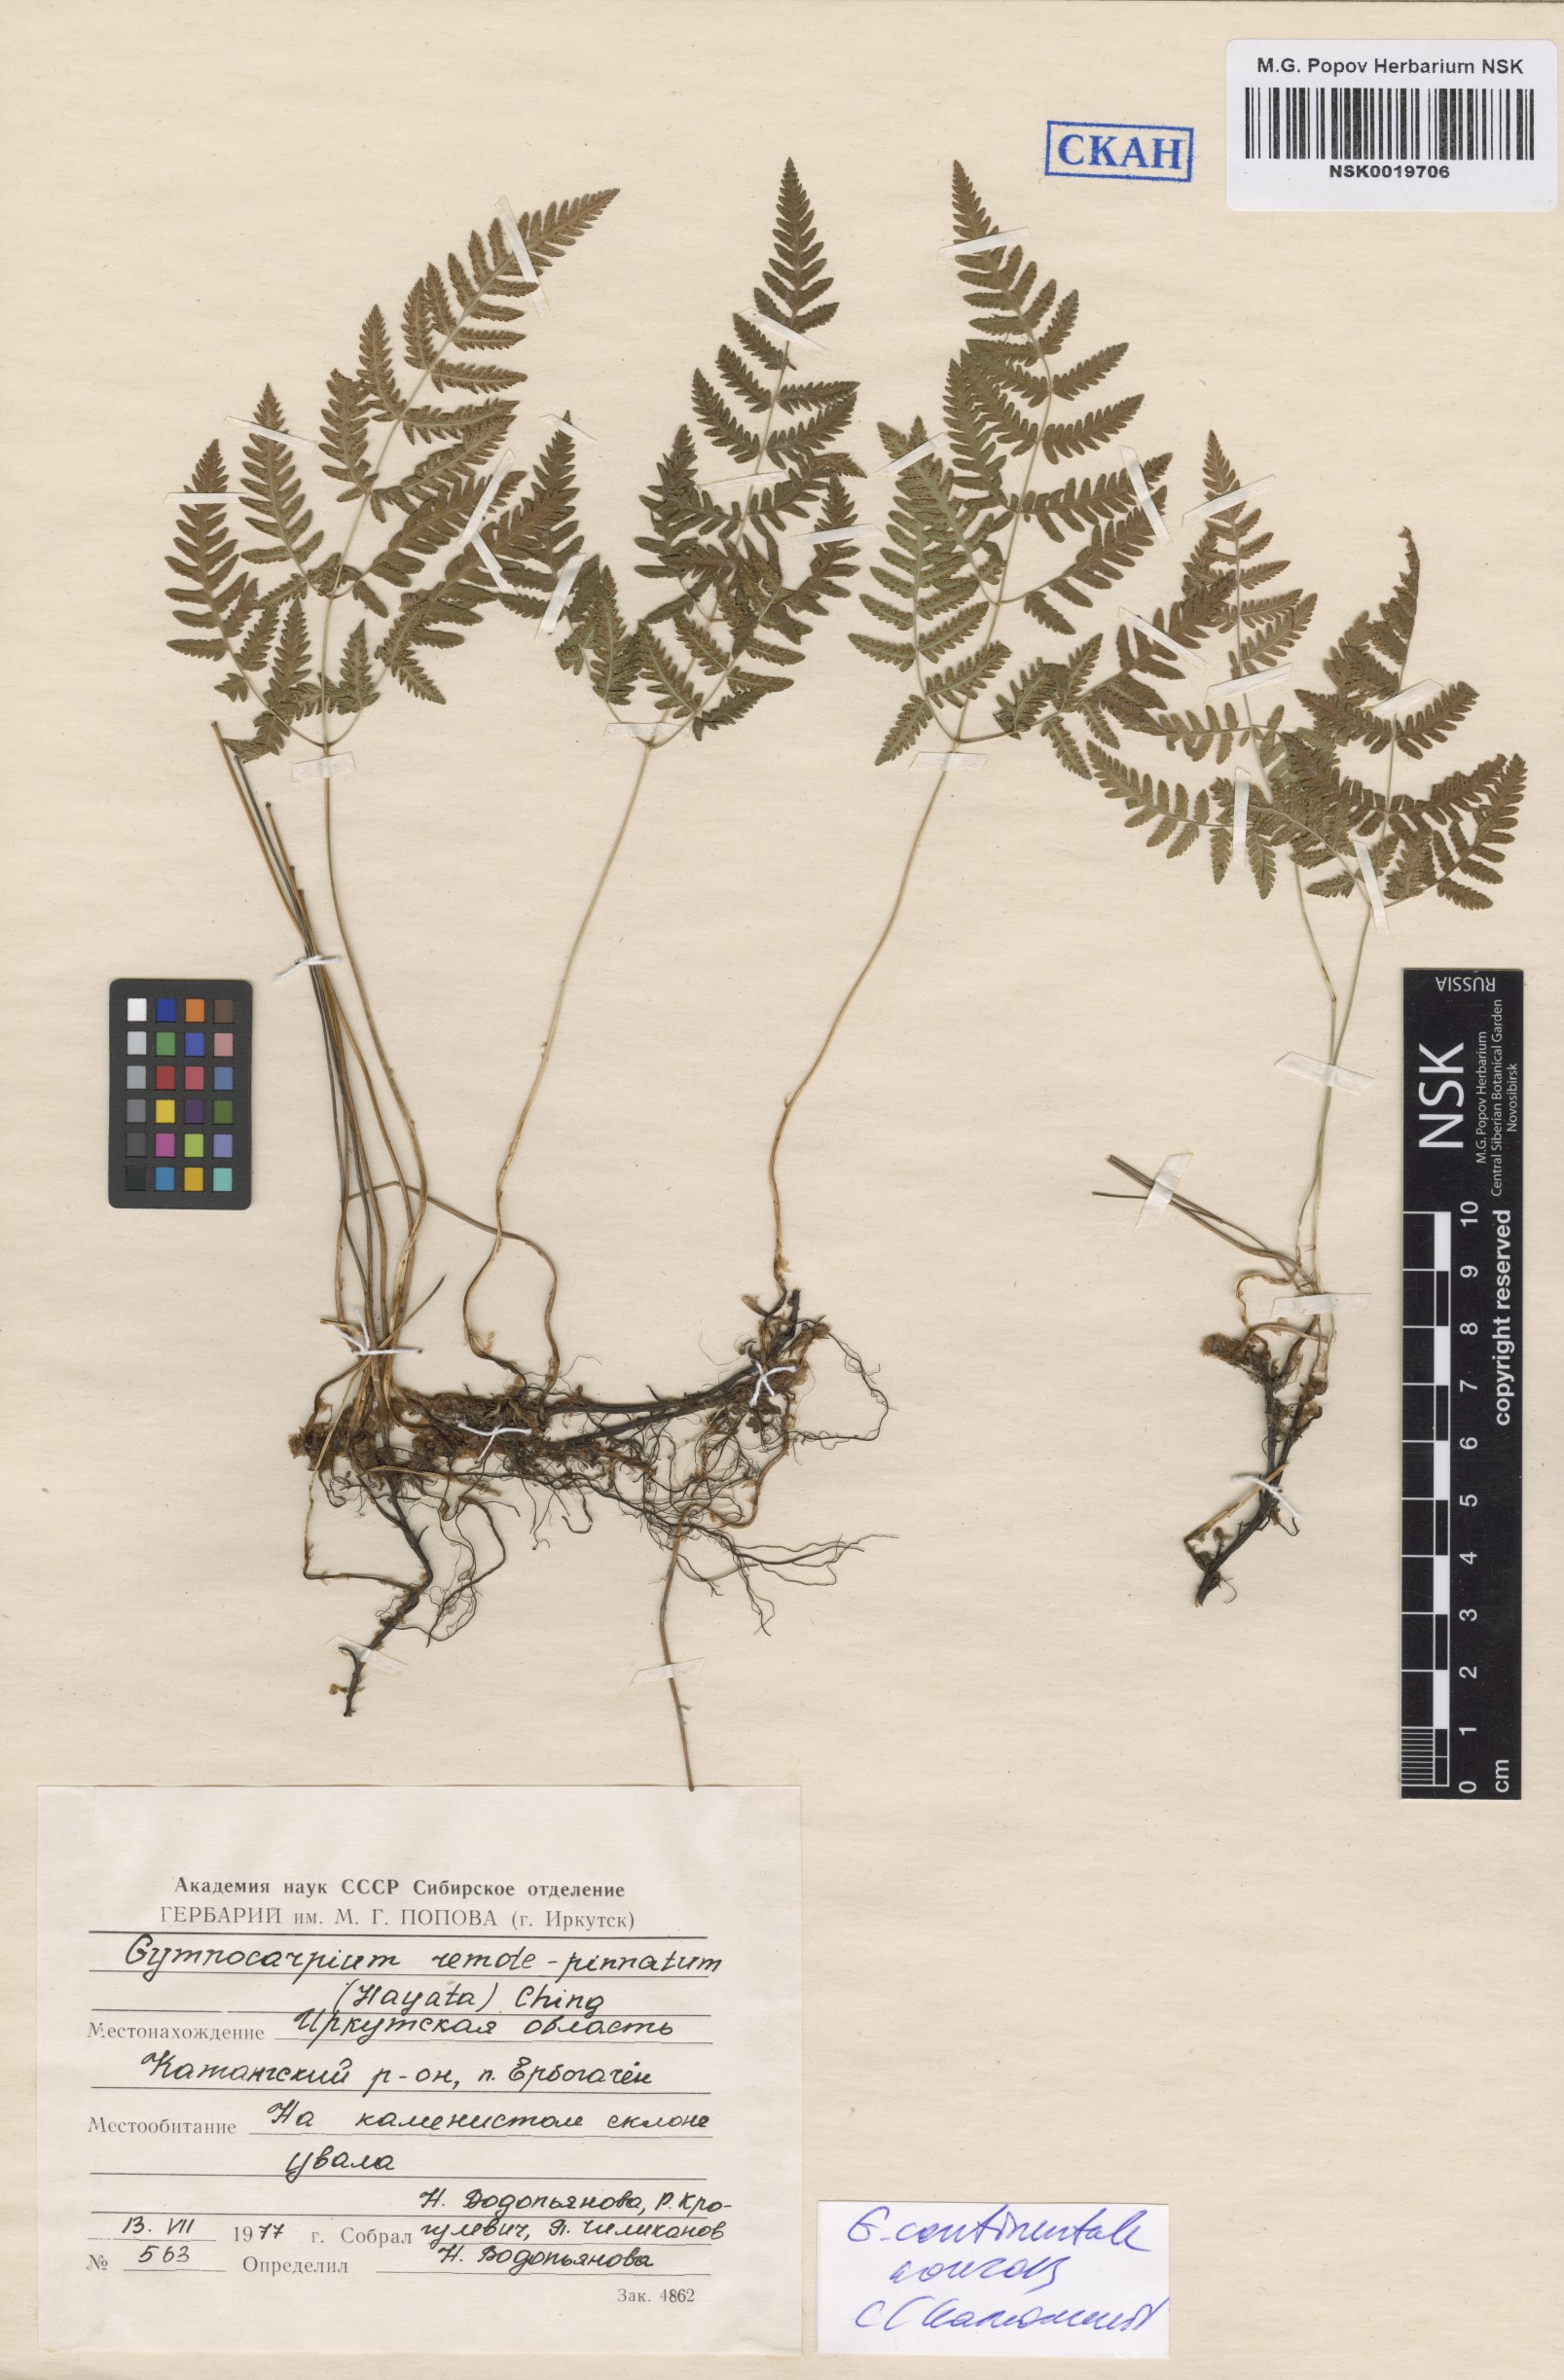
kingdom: Plantae
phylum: Tracheophyta
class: Polypodiopsida
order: Polypodiales
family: Cystopteridaceae
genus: Gymnocarpium
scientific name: Gymnocarpium continentale
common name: Asian oak fern
